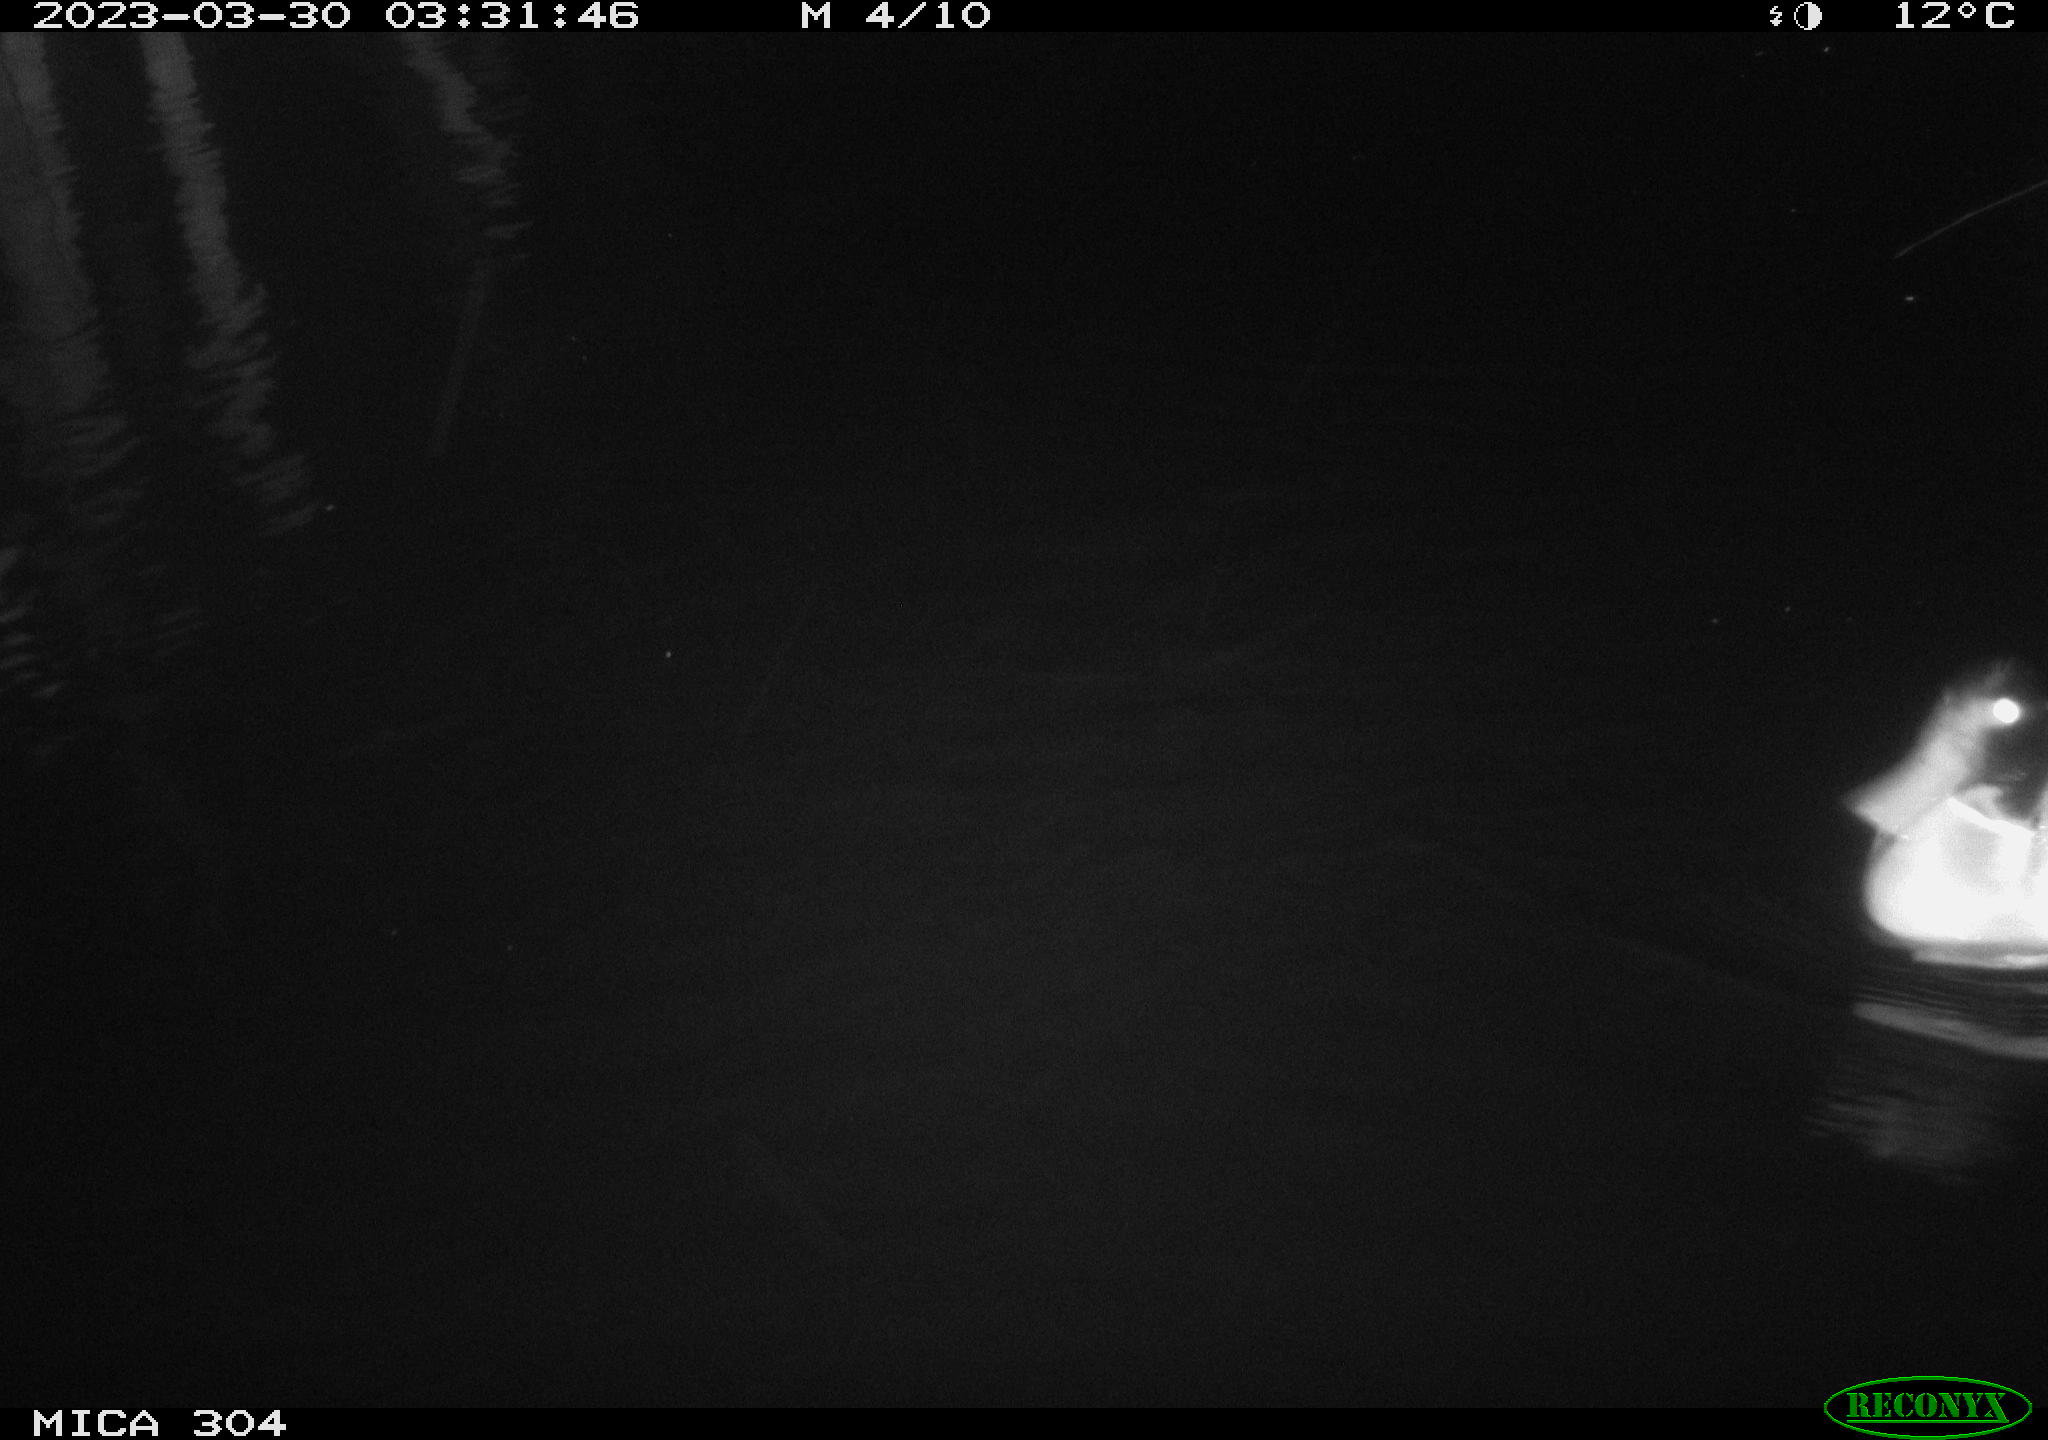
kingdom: Animalia
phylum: Chordata
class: Aves
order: Anseriformes
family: Anatidae
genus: Anas
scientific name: Anas
